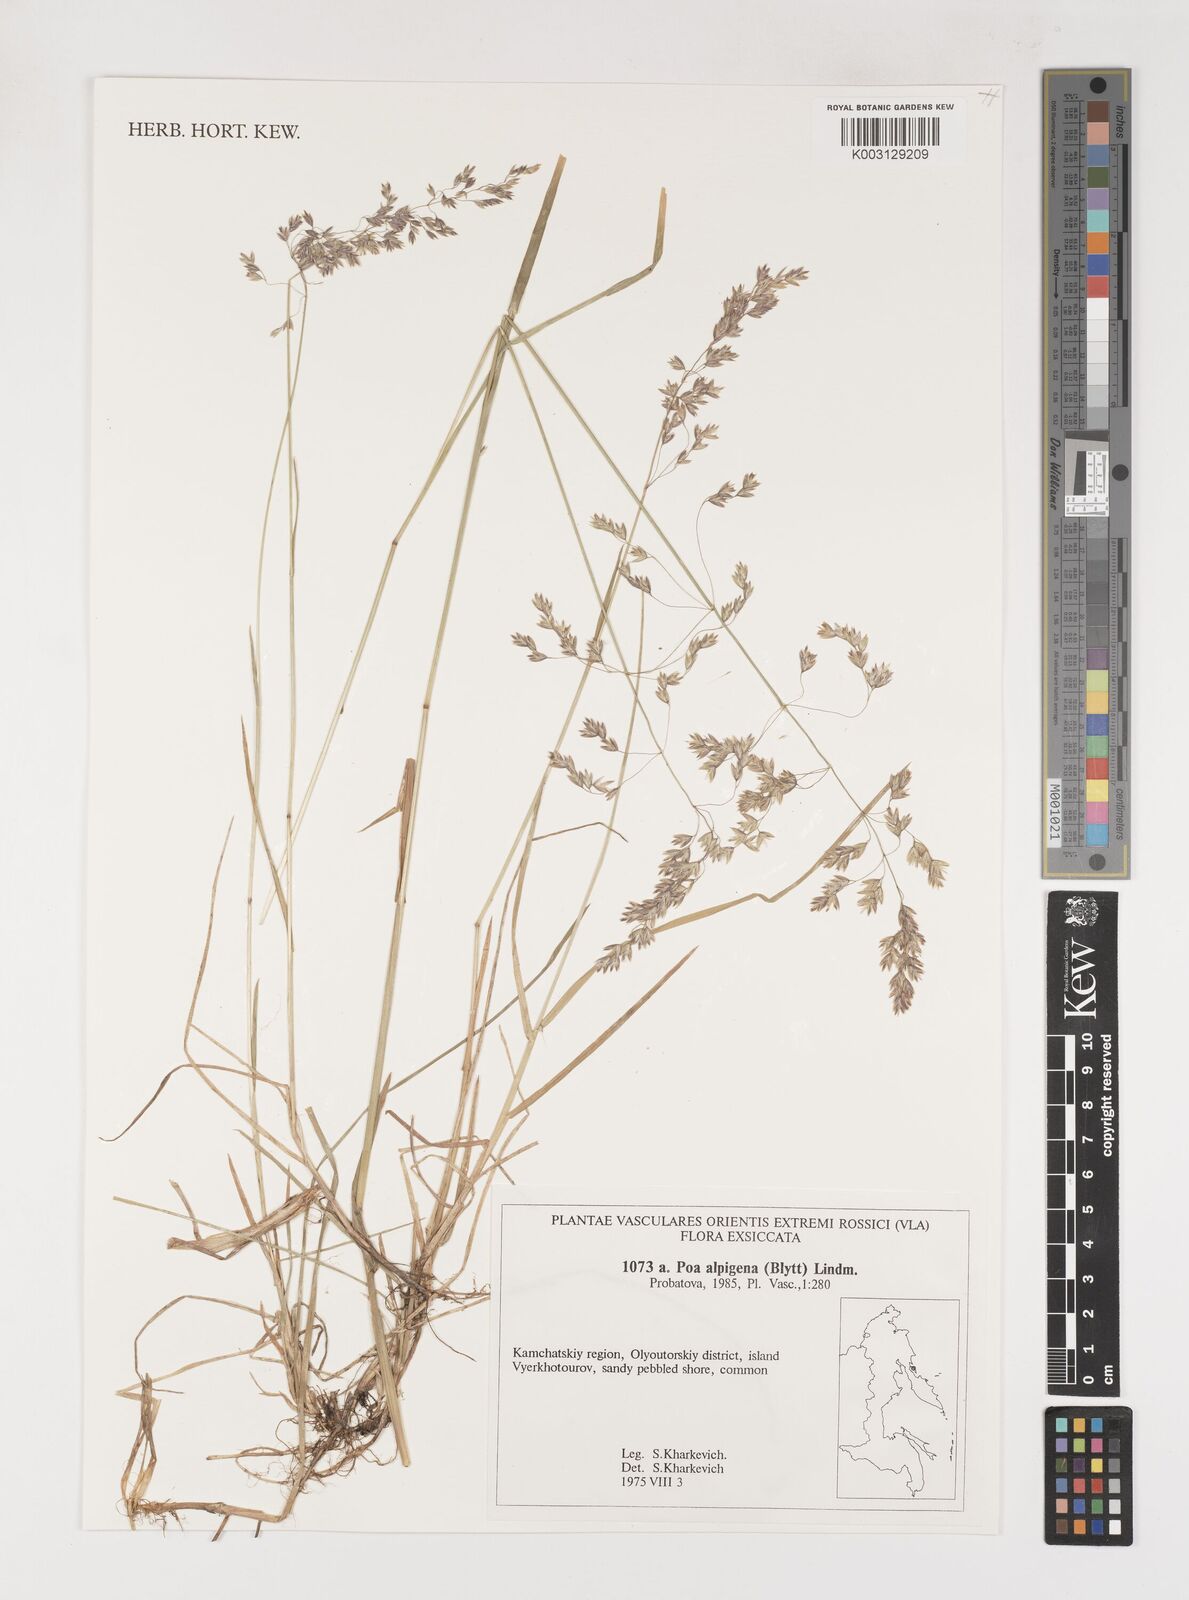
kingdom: Plantae
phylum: Tracheophyta
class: Liliopsida
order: Poales
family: Poaceae
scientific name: Poaceae
